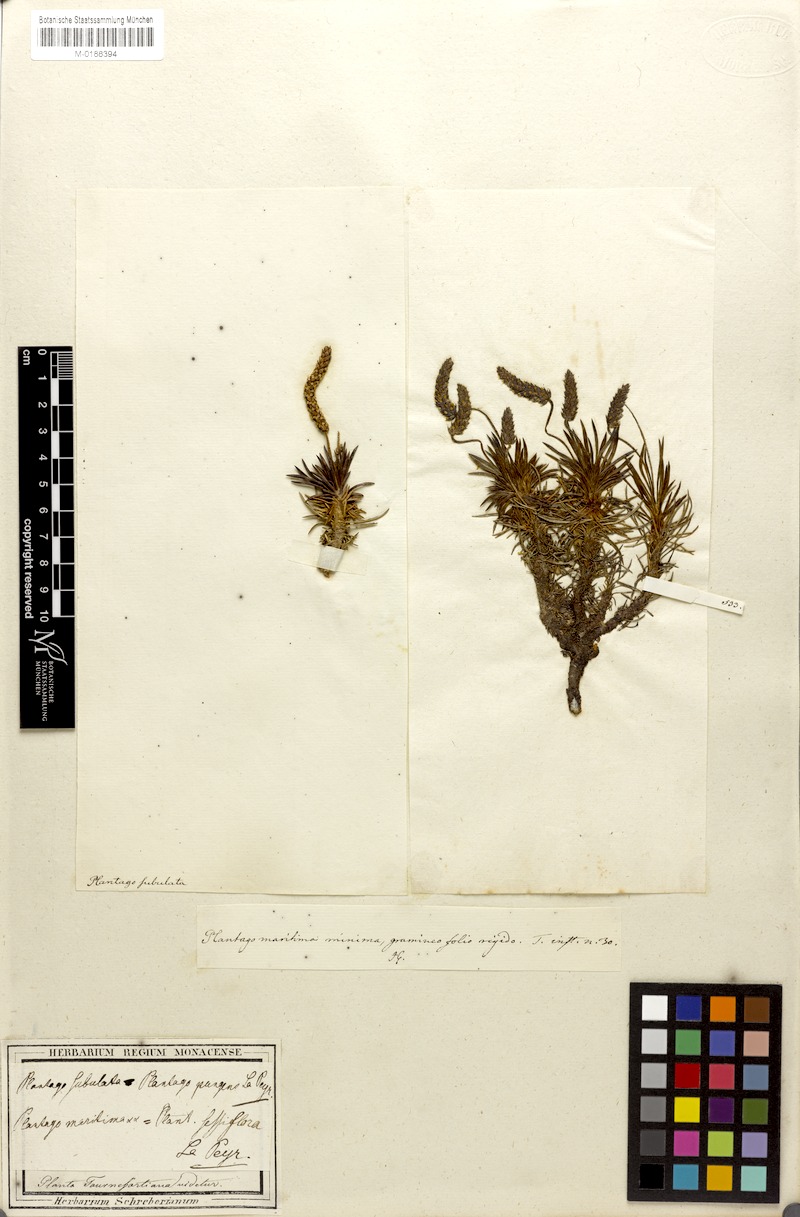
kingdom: Plantae
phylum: Tracheophyta
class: Magnoliopsida
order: Lamiales
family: Plantaginaceae
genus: Plantago
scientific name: Plantago subulata
